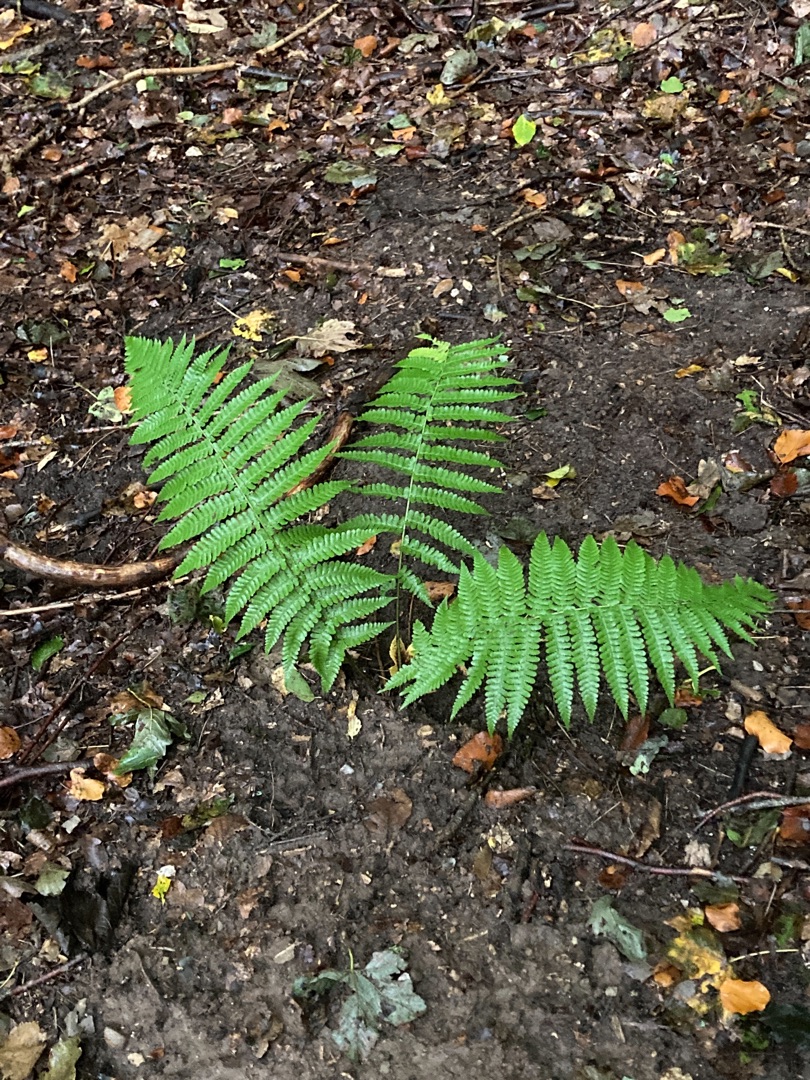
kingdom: Plantae
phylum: Tracheophyta
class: Polypodiopsida
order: Polypodiales
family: Dryopteridaceae
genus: Dryopteris
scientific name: Dryopteris filix-mas
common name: Almindelig mangeløv
